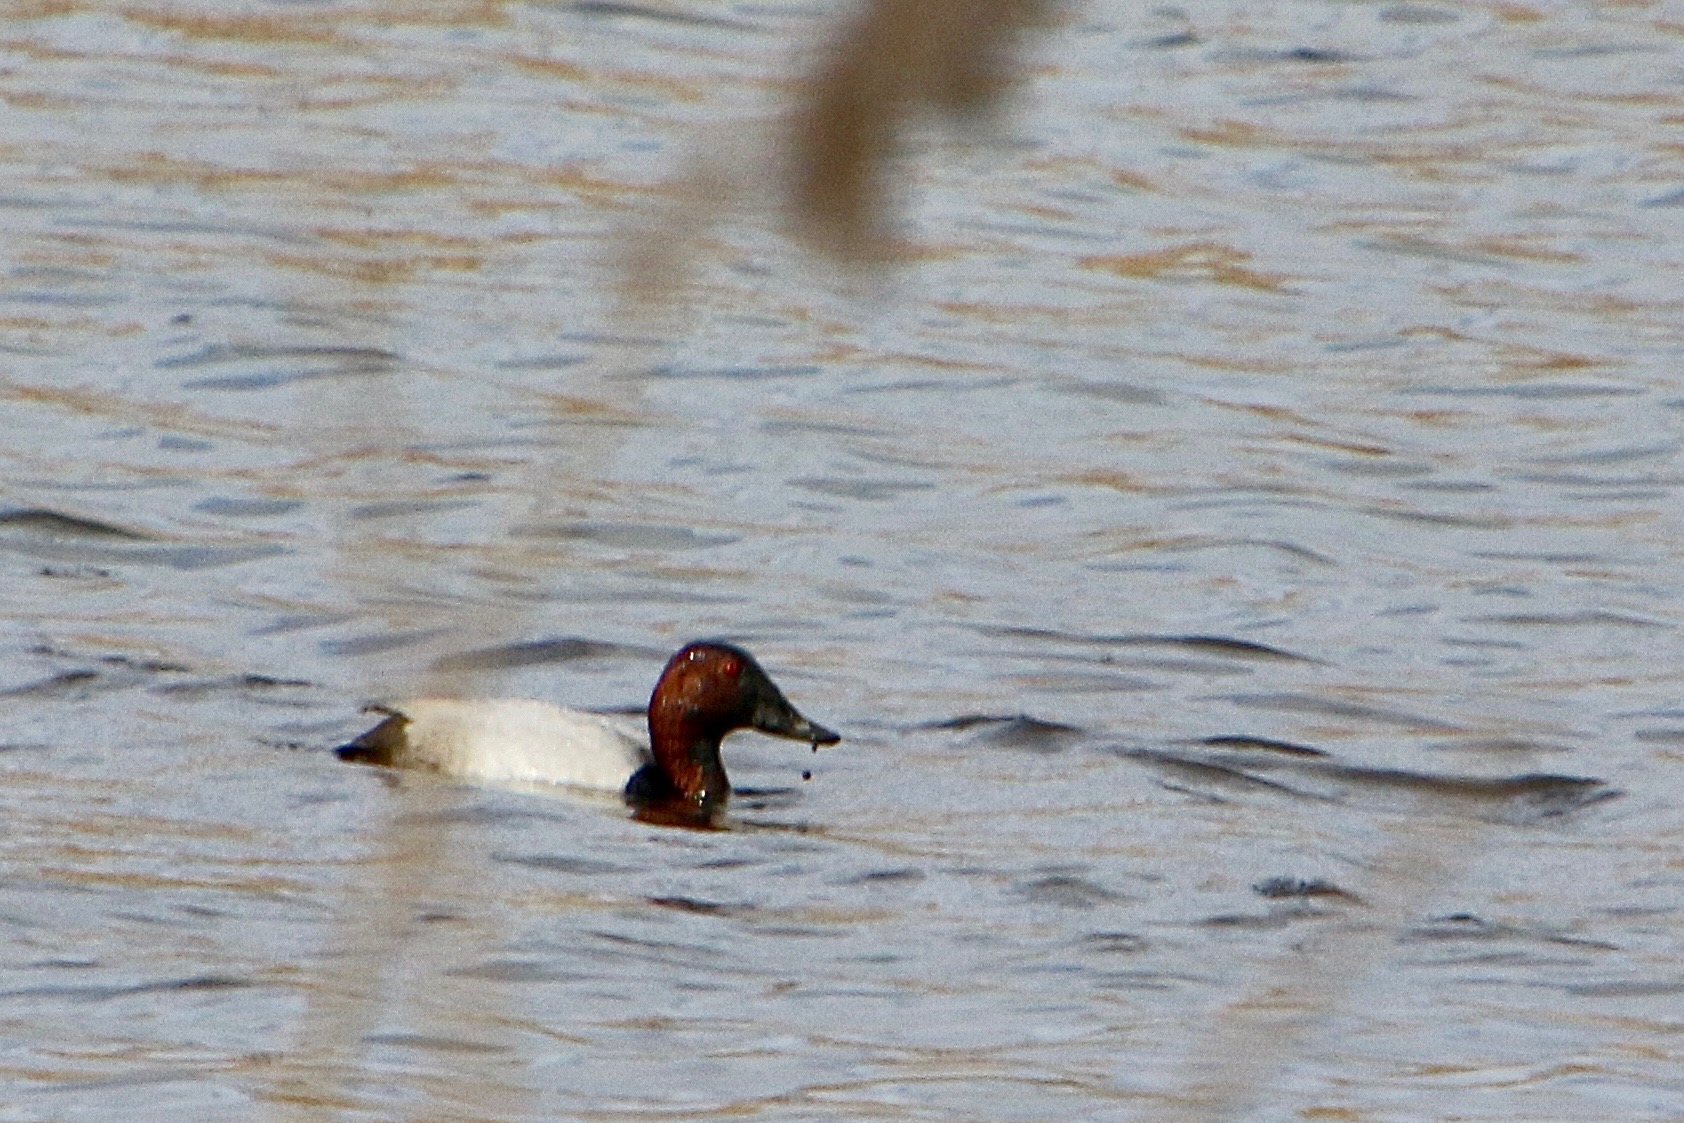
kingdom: Animalia
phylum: Chordata
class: Aves
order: Anseriformes
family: Anatidae
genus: Aythya
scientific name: Aythya ferina
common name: Taffeland
